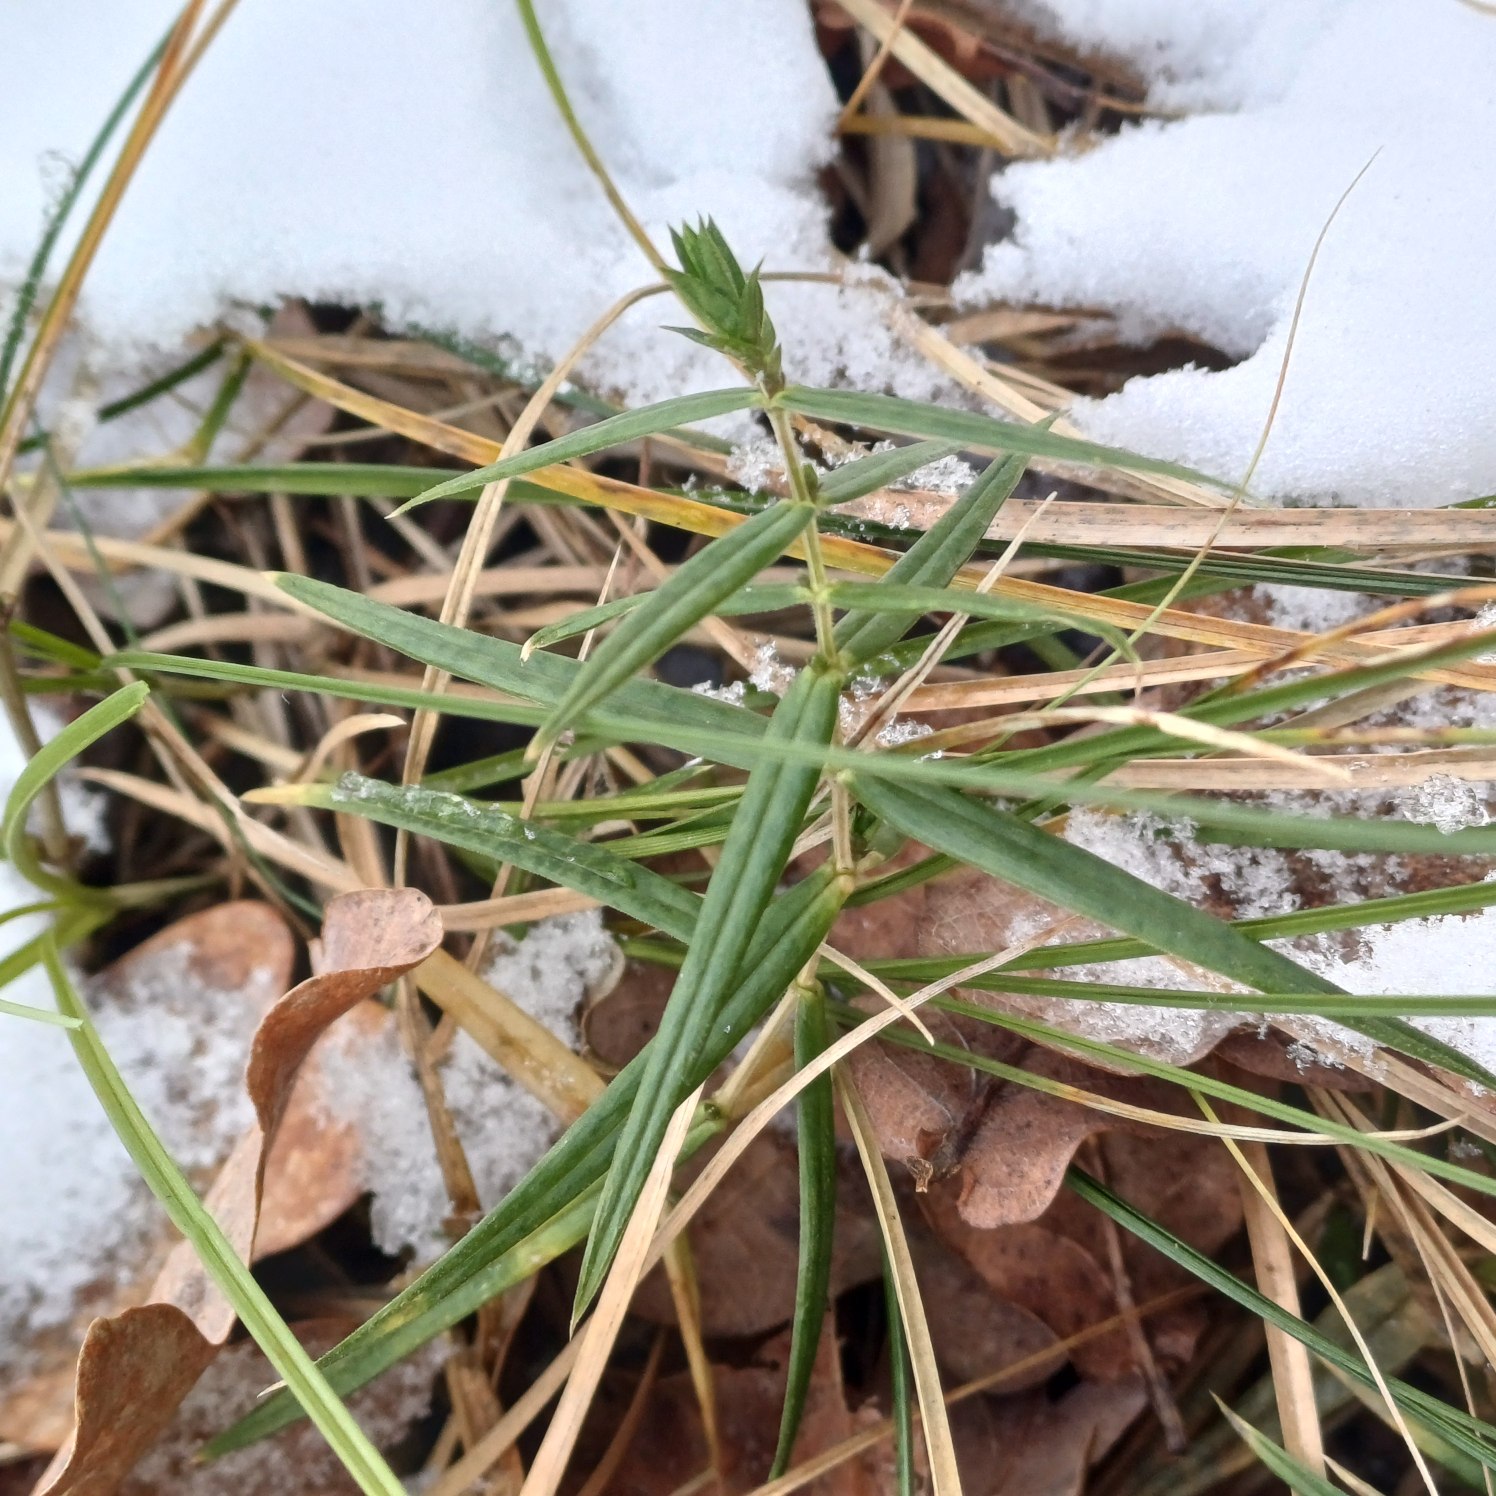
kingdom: Plantae
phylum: Tracheophyta
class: Magnoliopsida
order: Caryophyllales
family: Caryophyllaceae
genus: Rabelera
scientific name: Rabelera holostea
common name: Stor fladstjerne
